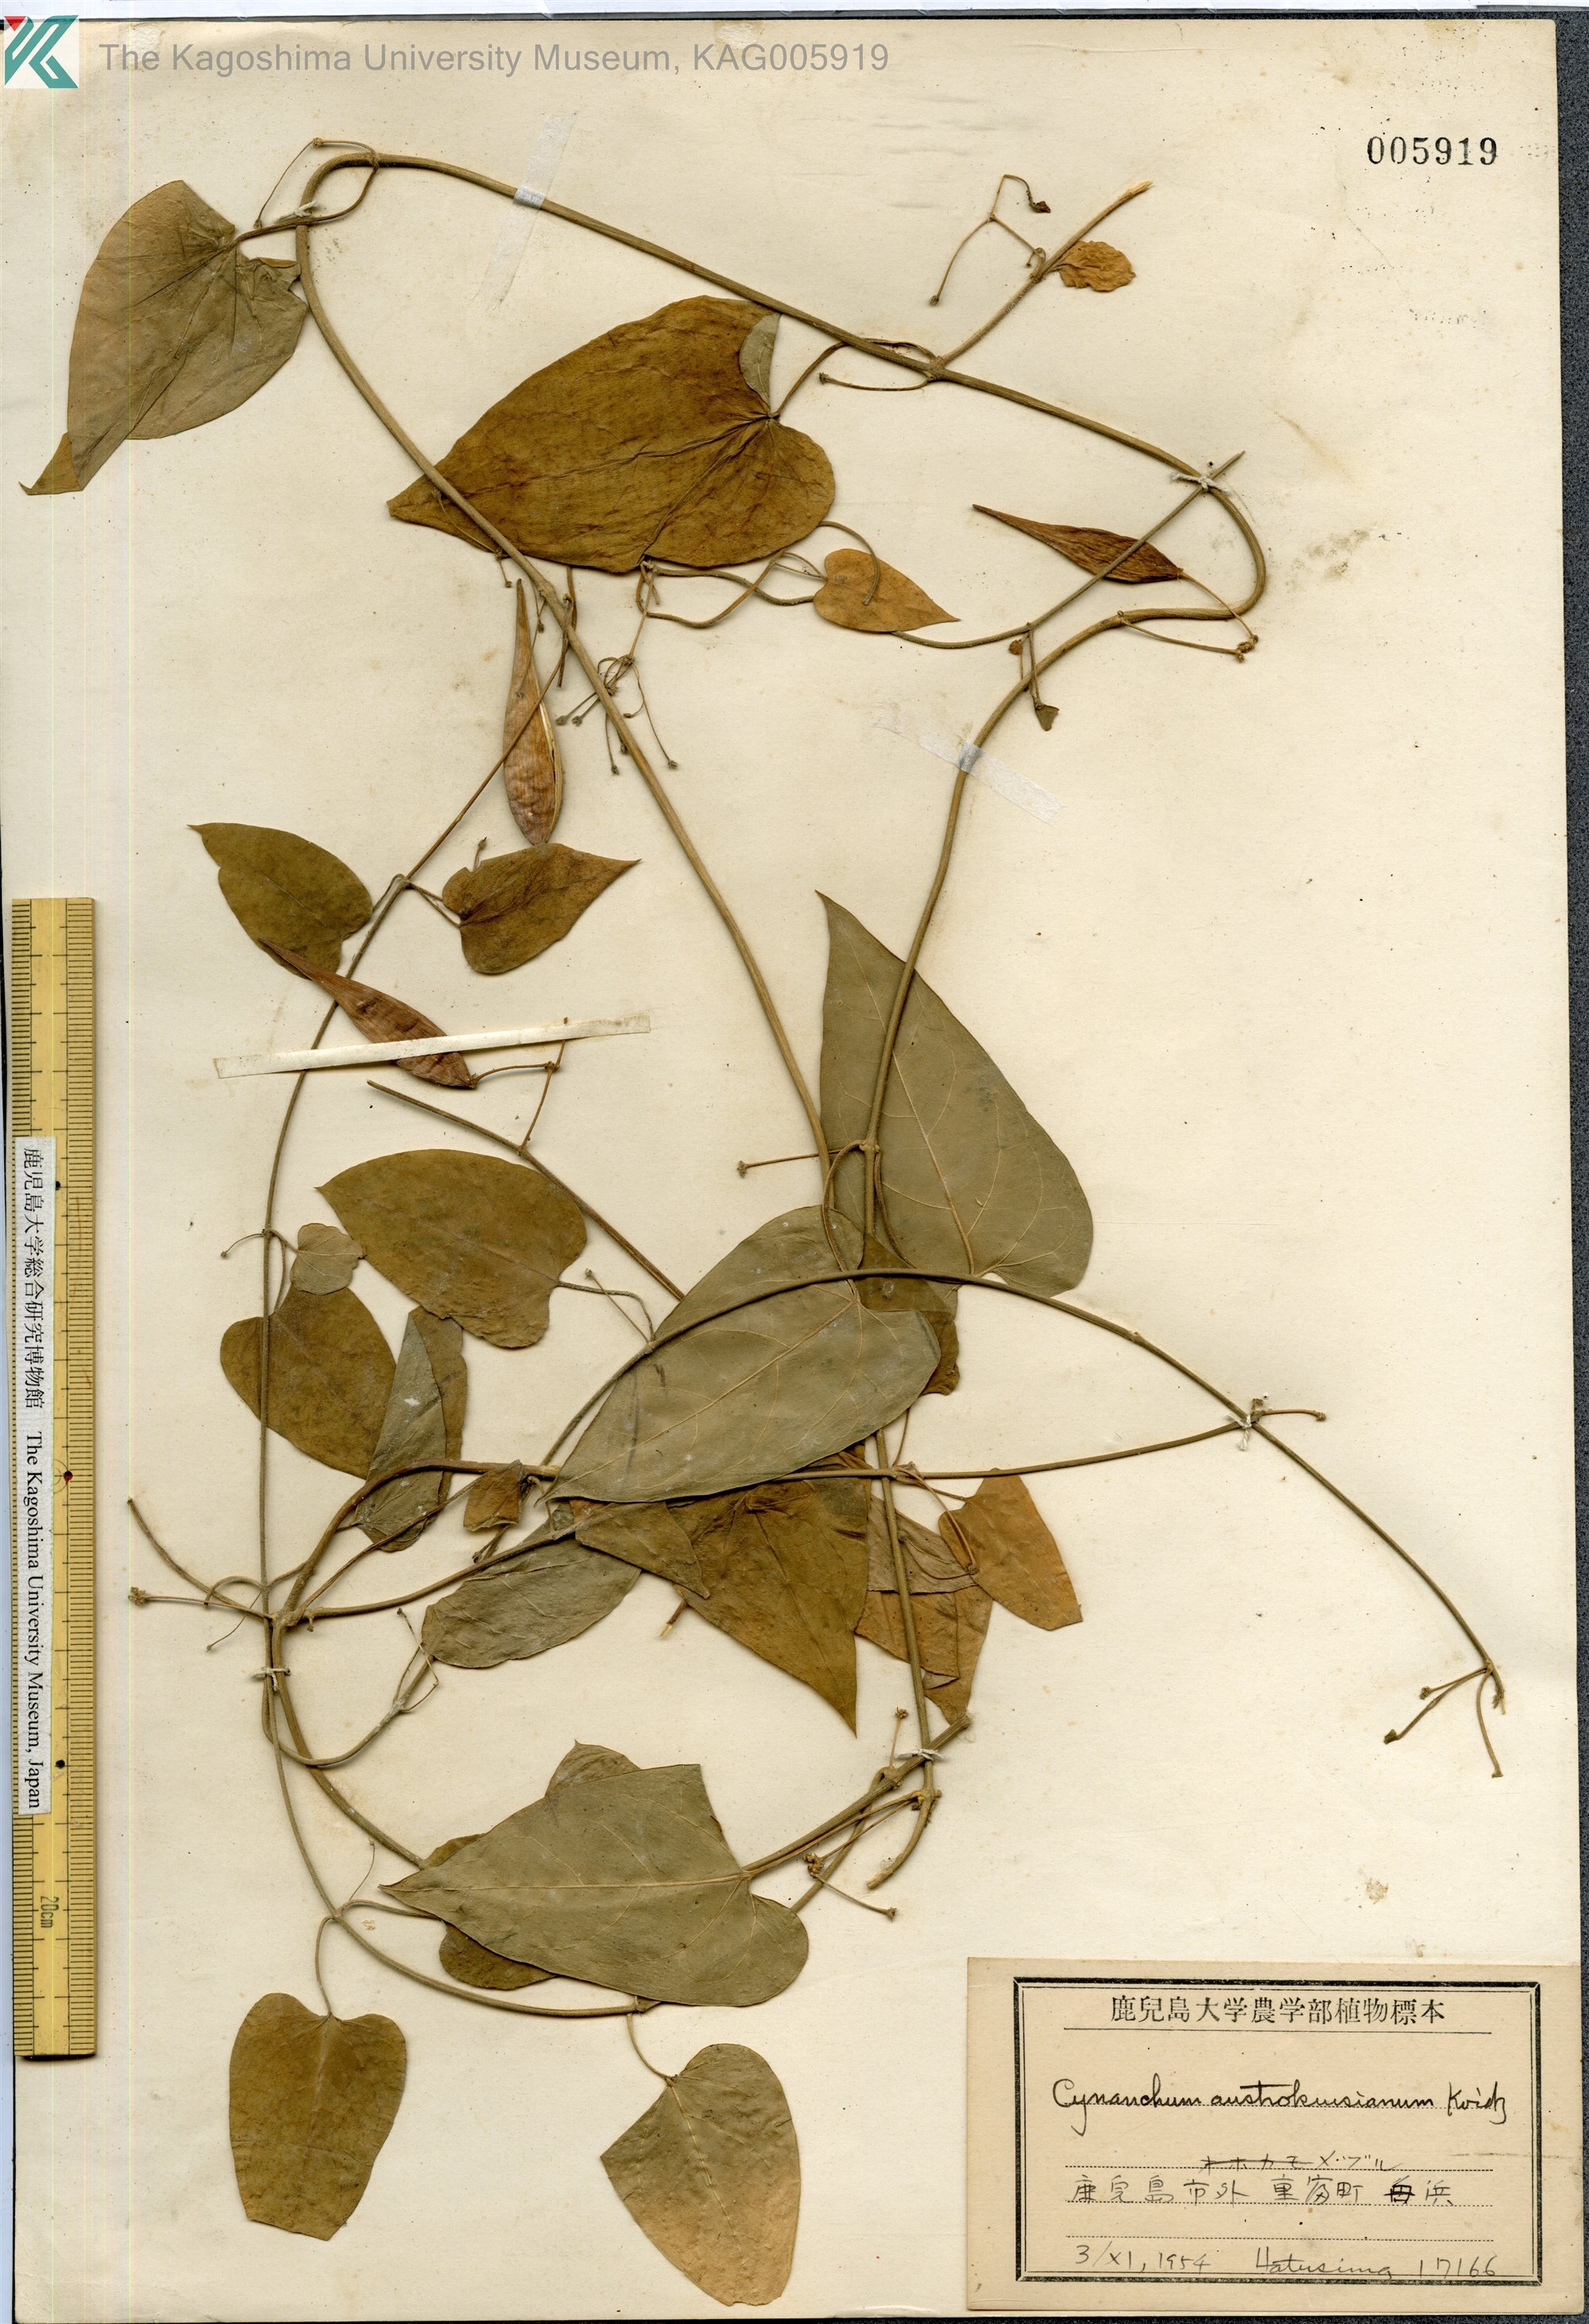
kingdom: Plantae
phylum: Tracheophyta
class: Magnoliopsida
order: Gentianales
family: Apocynaceae
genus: Vincetoxicum
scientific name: Vincetoxicum austrokiusianum
